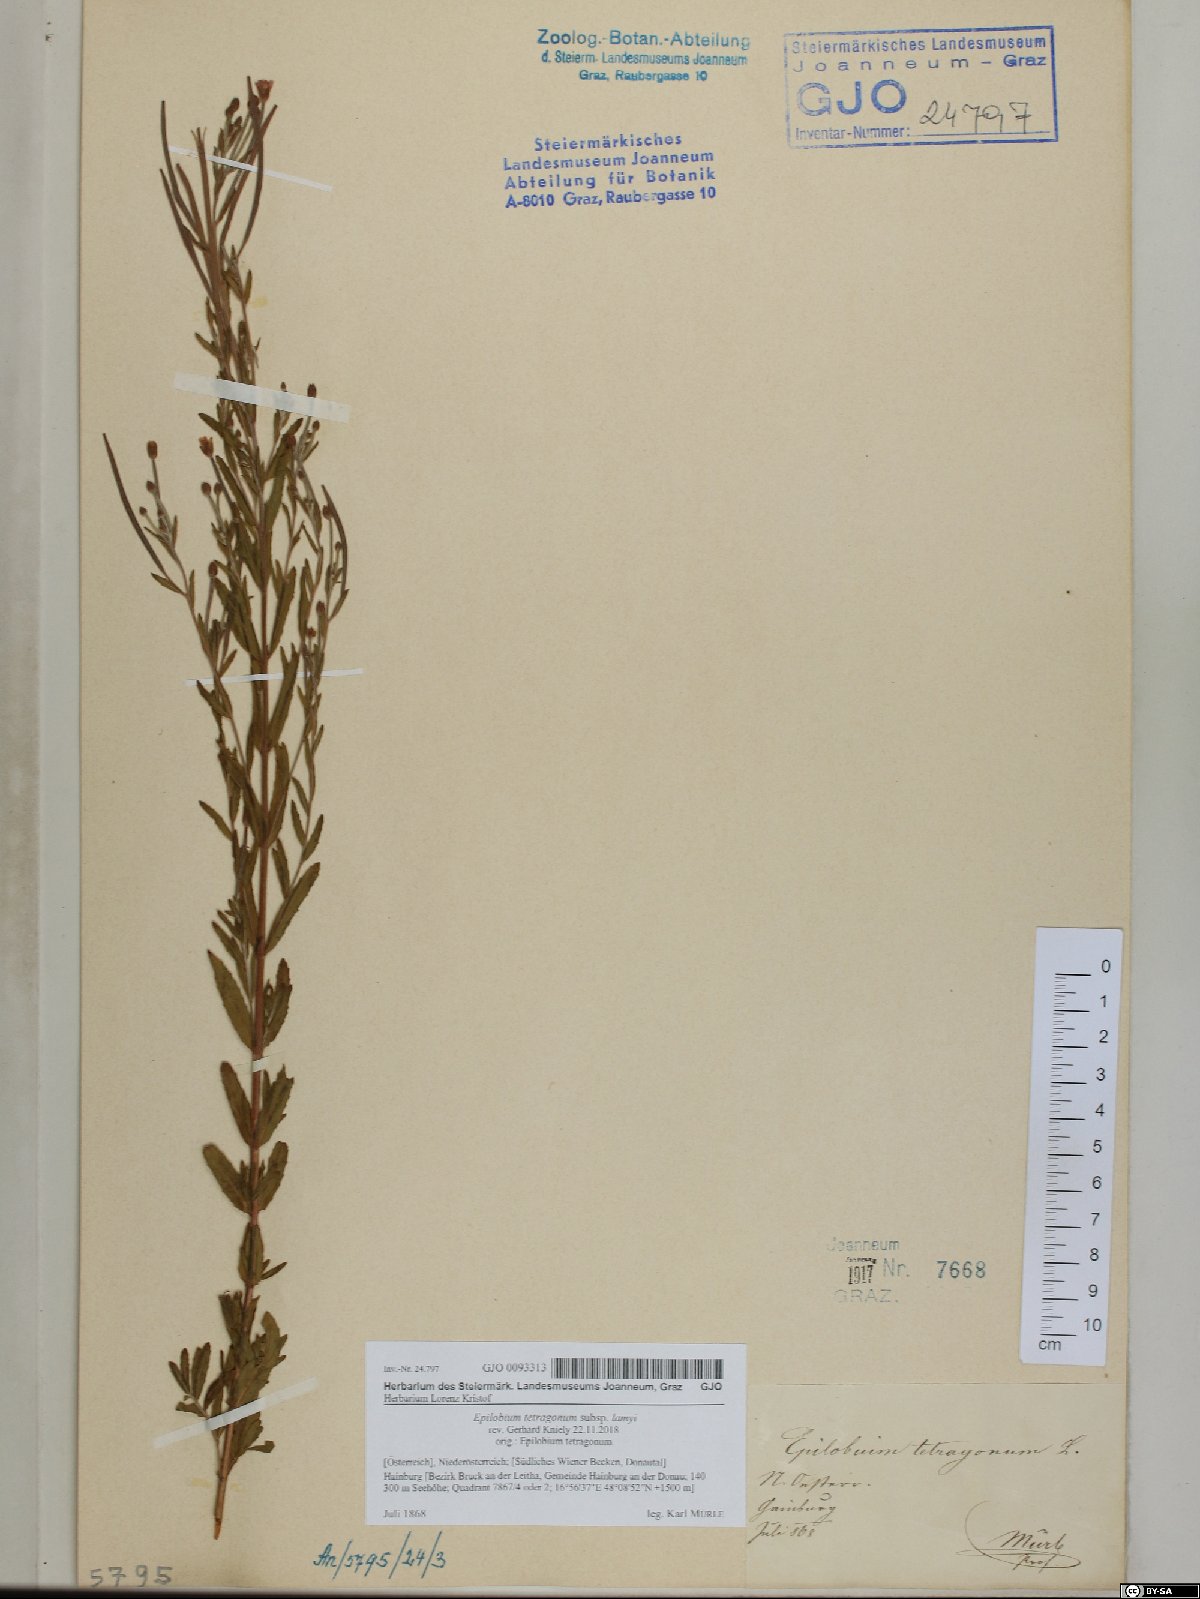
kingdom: Plantae
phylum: Tracheophyta
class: Magnoliopsida
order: Myrtales
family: Onagraceae
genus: Epilobium
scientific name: Epilobium lamyi
